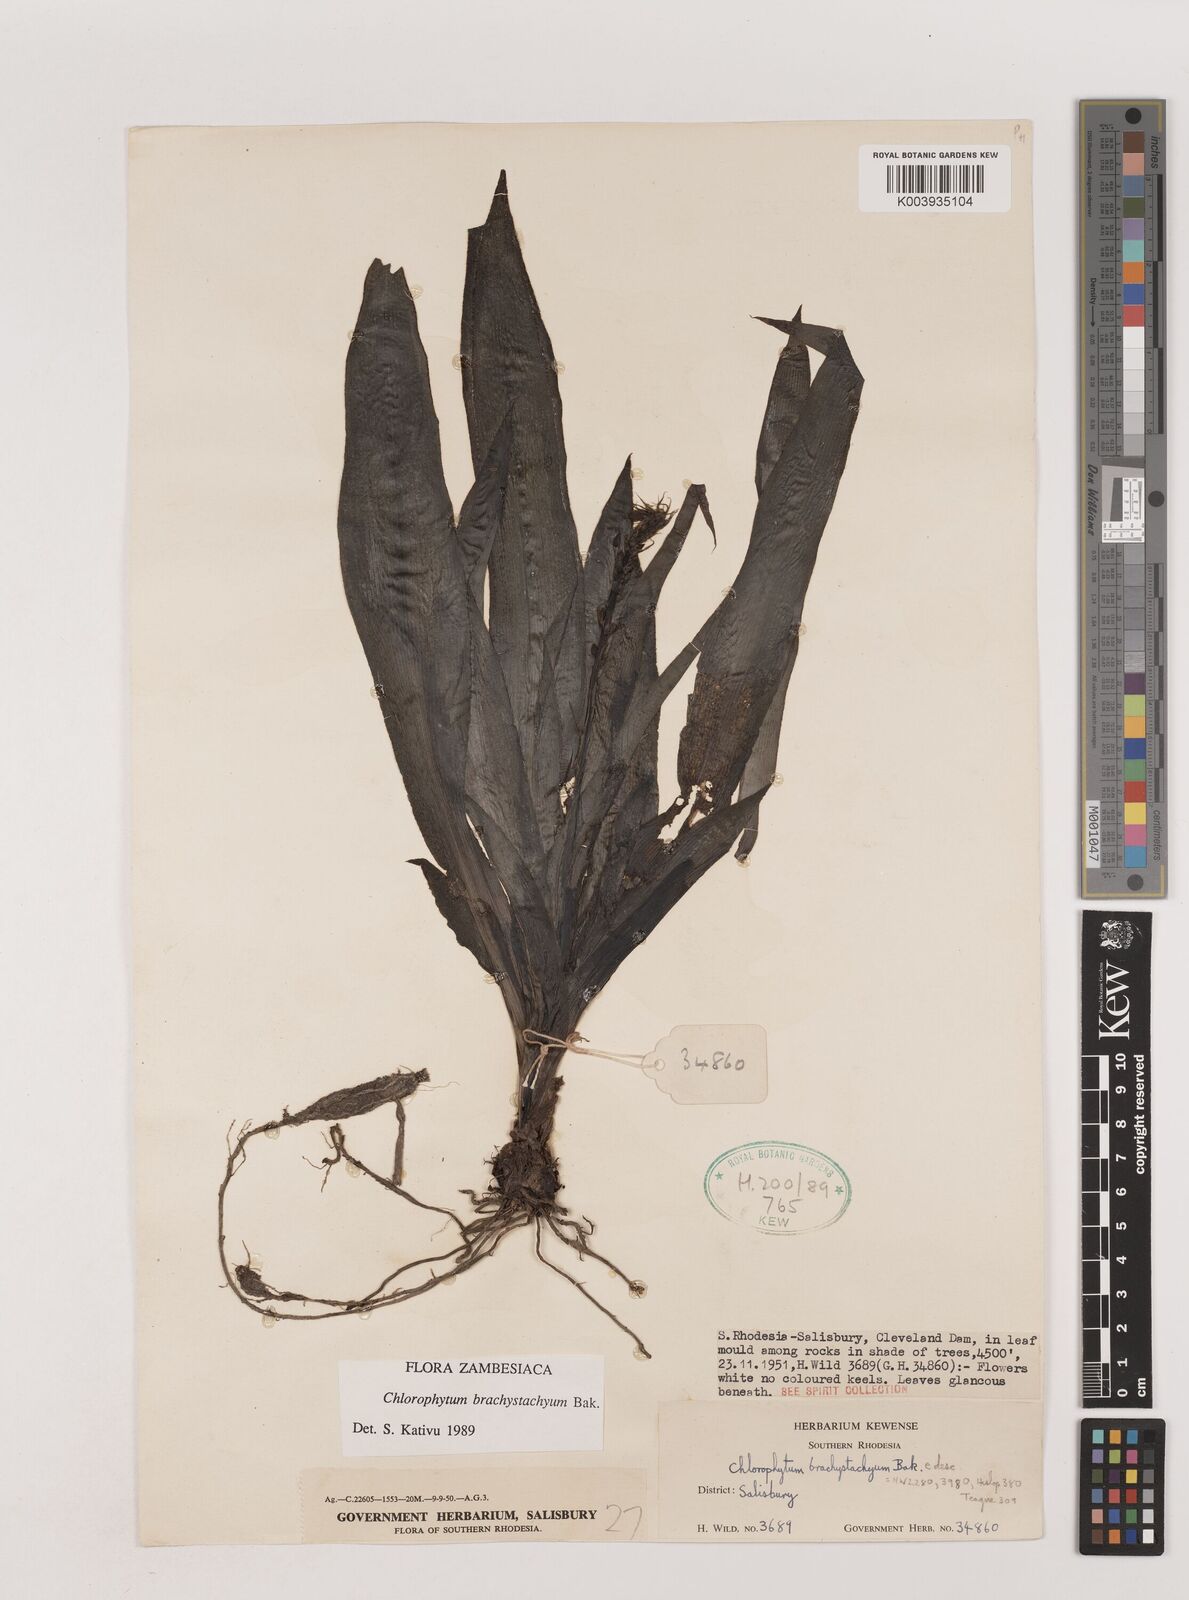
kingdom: Plantae
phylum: Tracheophyta
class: Liliopsida
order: Asparagales
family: Asparagaceae
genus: Chlorophytum
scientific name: Chlorophytum brachystachyum
